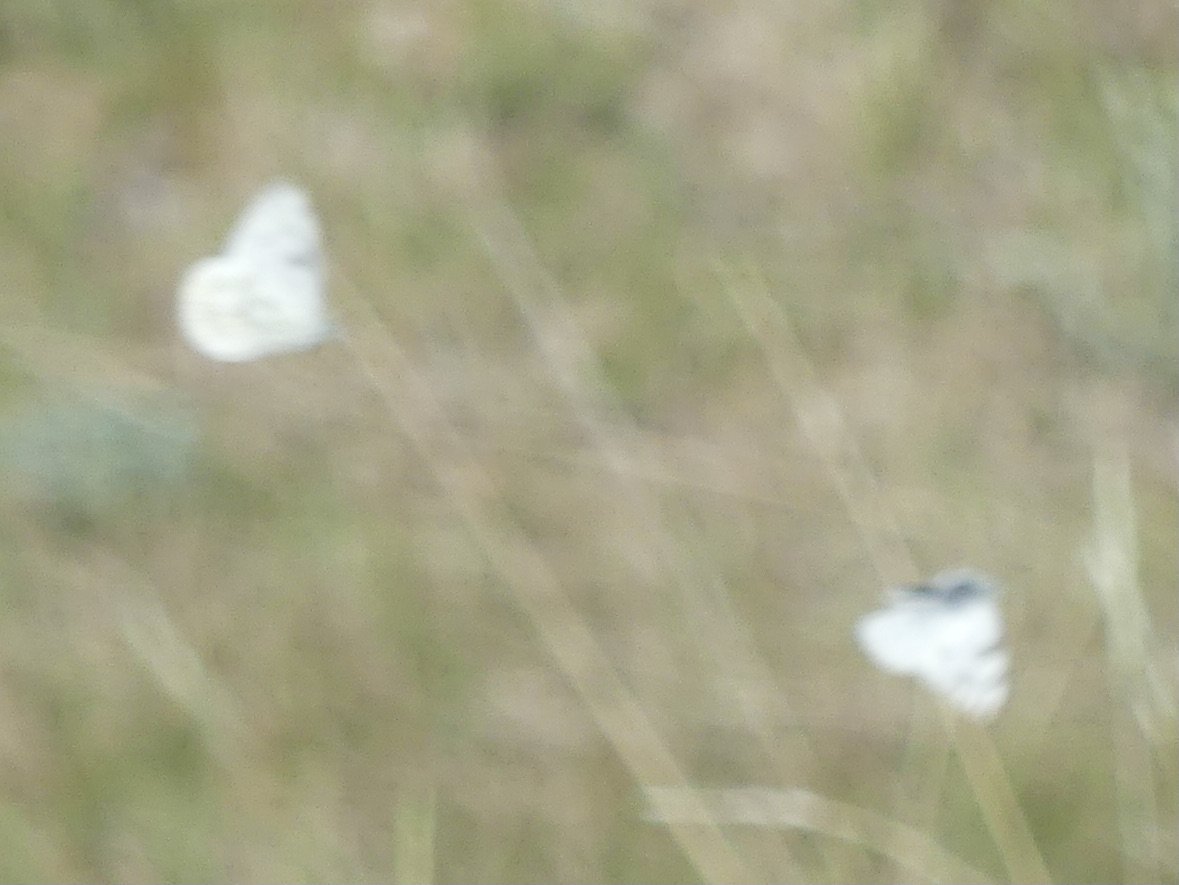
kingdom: Animalia
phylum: Arthropoda
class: Insecta
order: Lepidoptera
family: Pieridae
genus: Pontia
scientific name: Pontia occidentalis
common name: Western White
